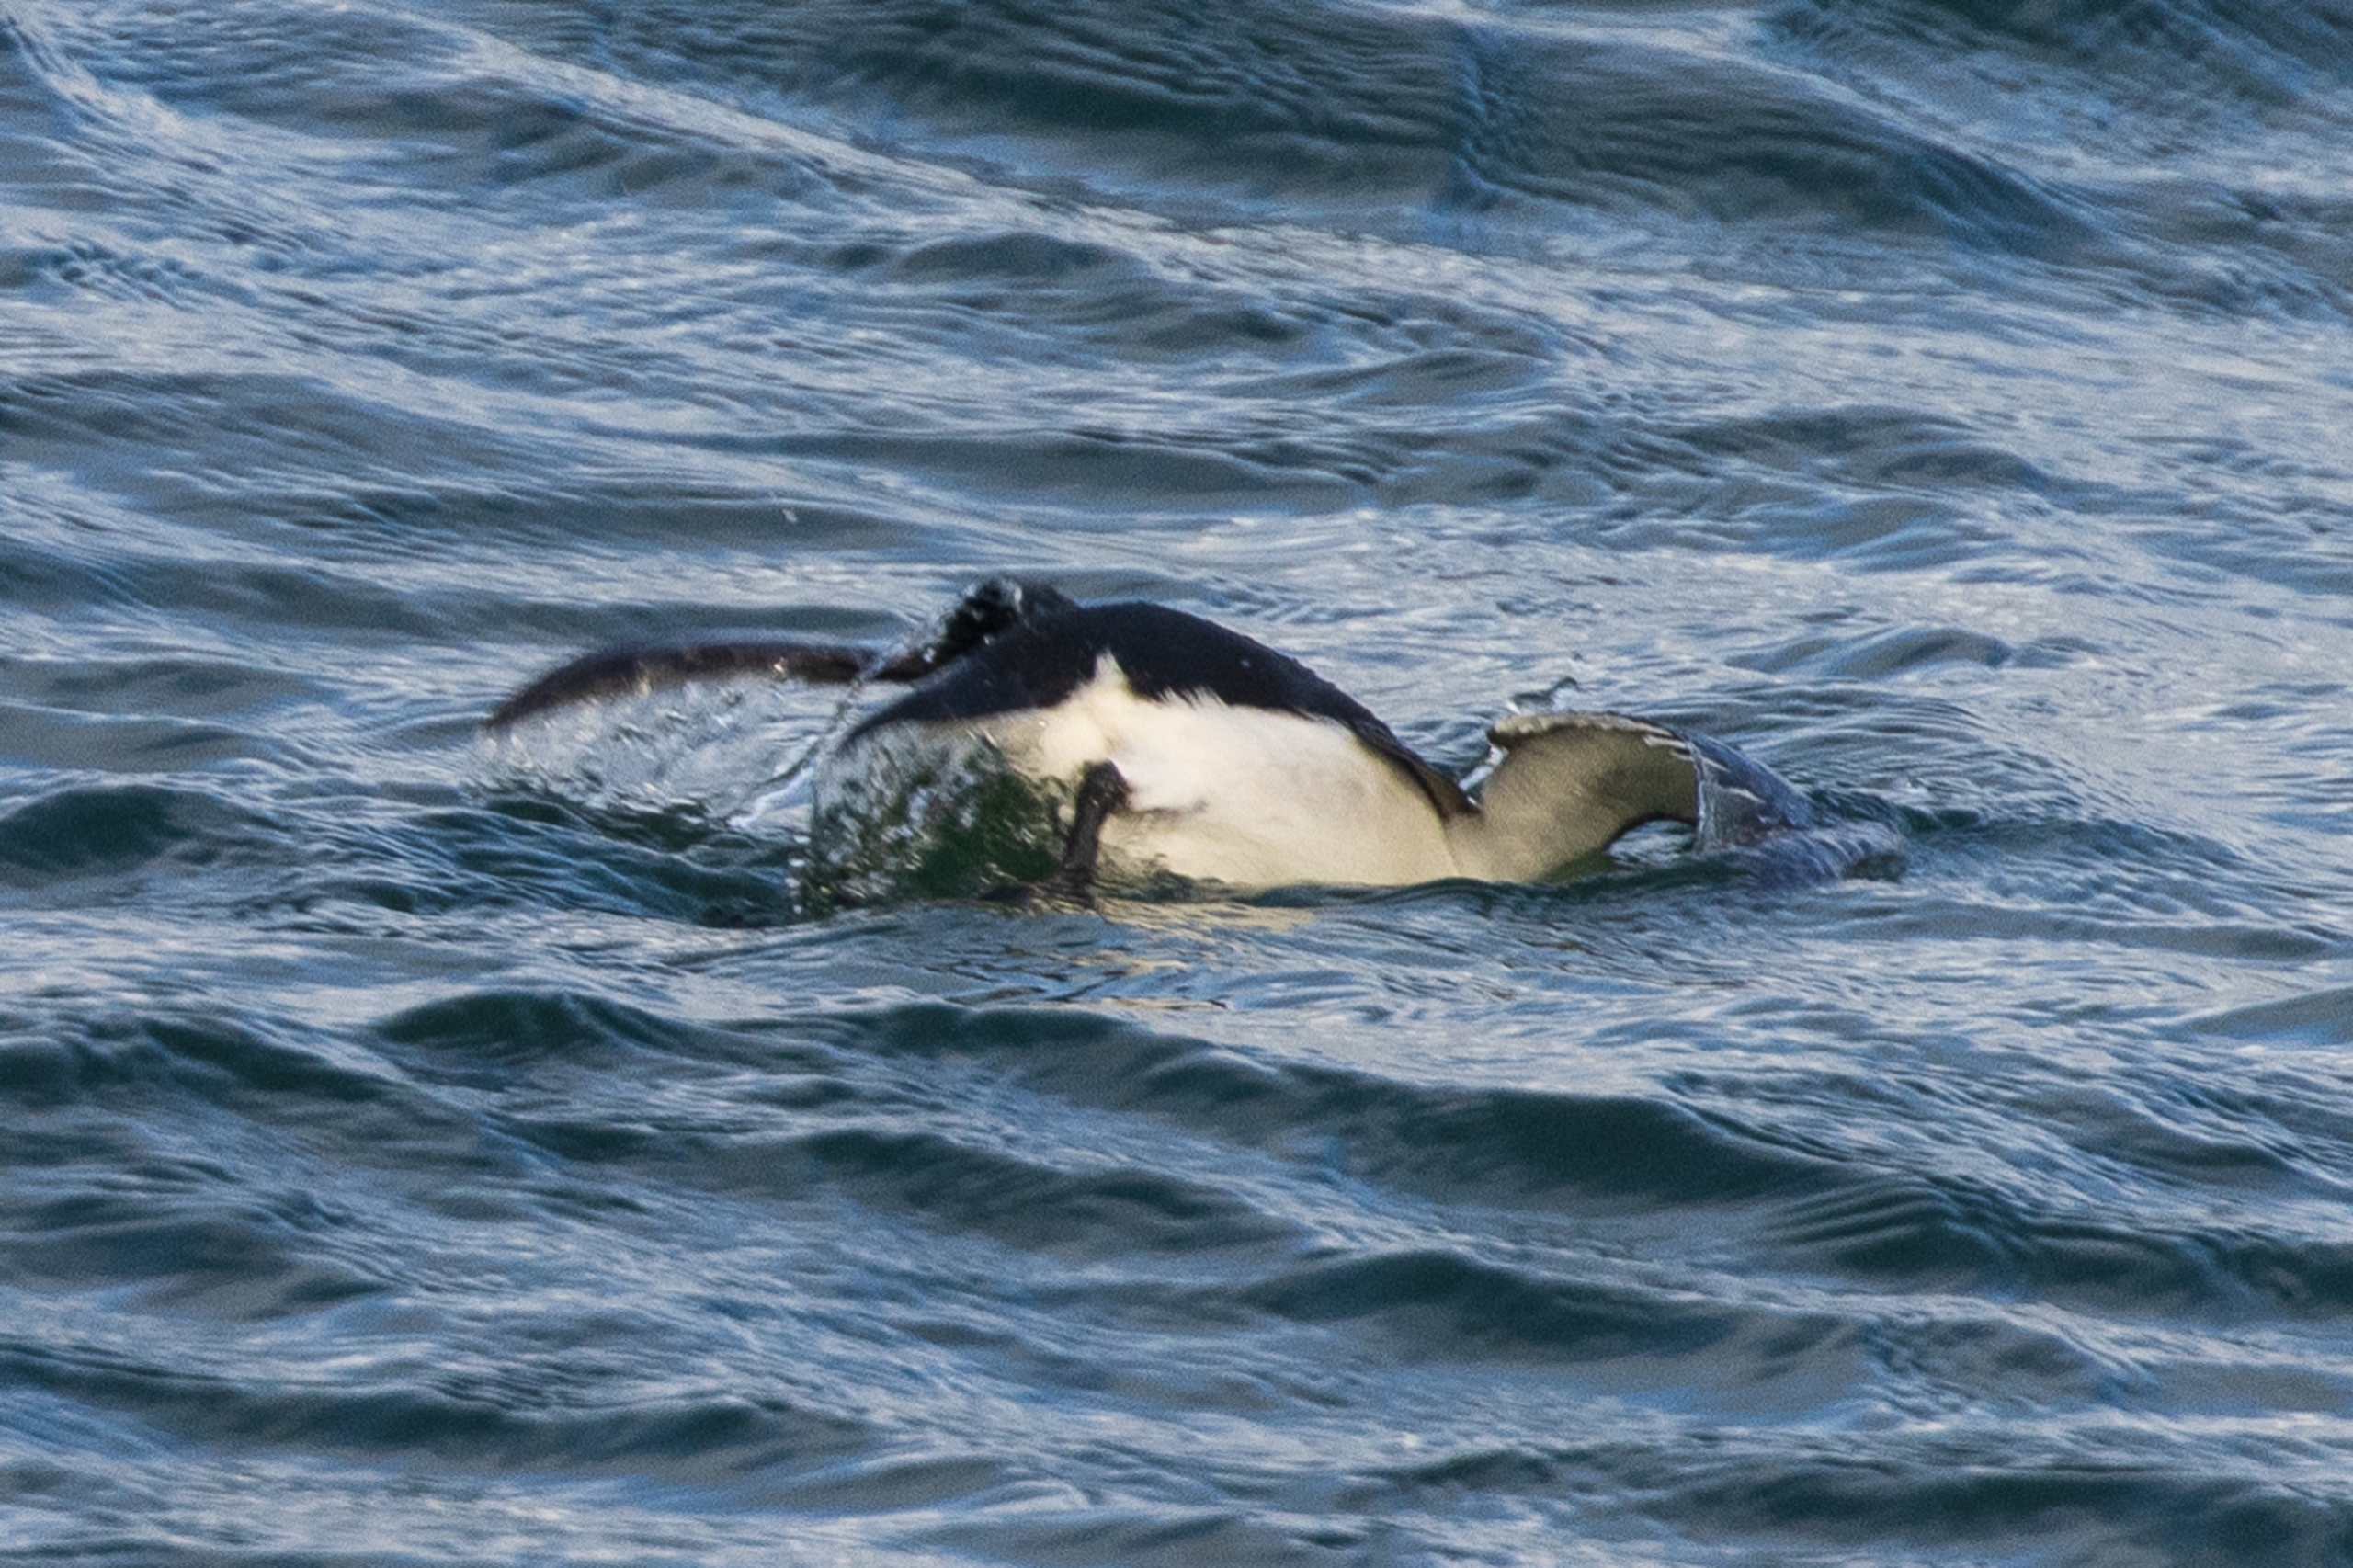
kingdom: Animalia
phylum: Chordata
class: Aves
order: Charadriiformes
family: Alcidae
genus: Alca
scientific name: Alca torda
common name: Alk
